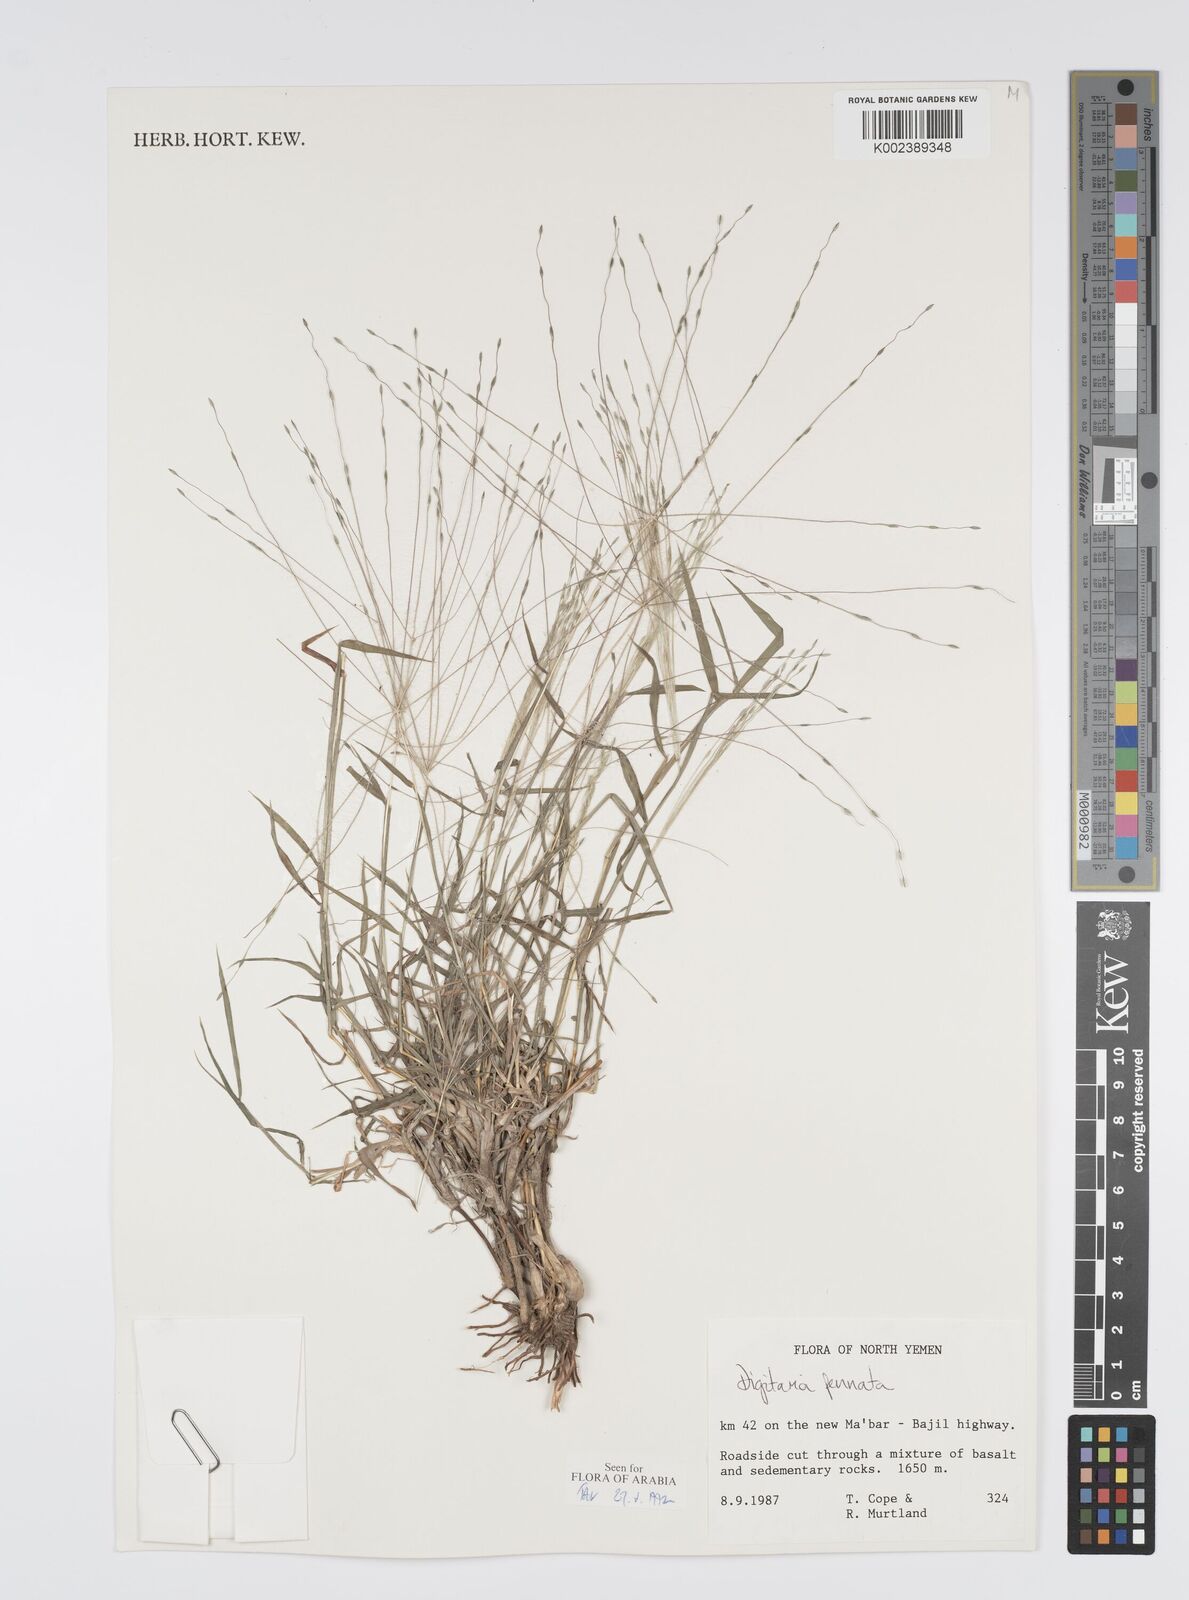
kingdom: Plantae
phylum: Tracheophyta
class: Liliopsida
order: Poales
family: Poaceae
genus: Digitaria
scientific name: Digitaria pennata
